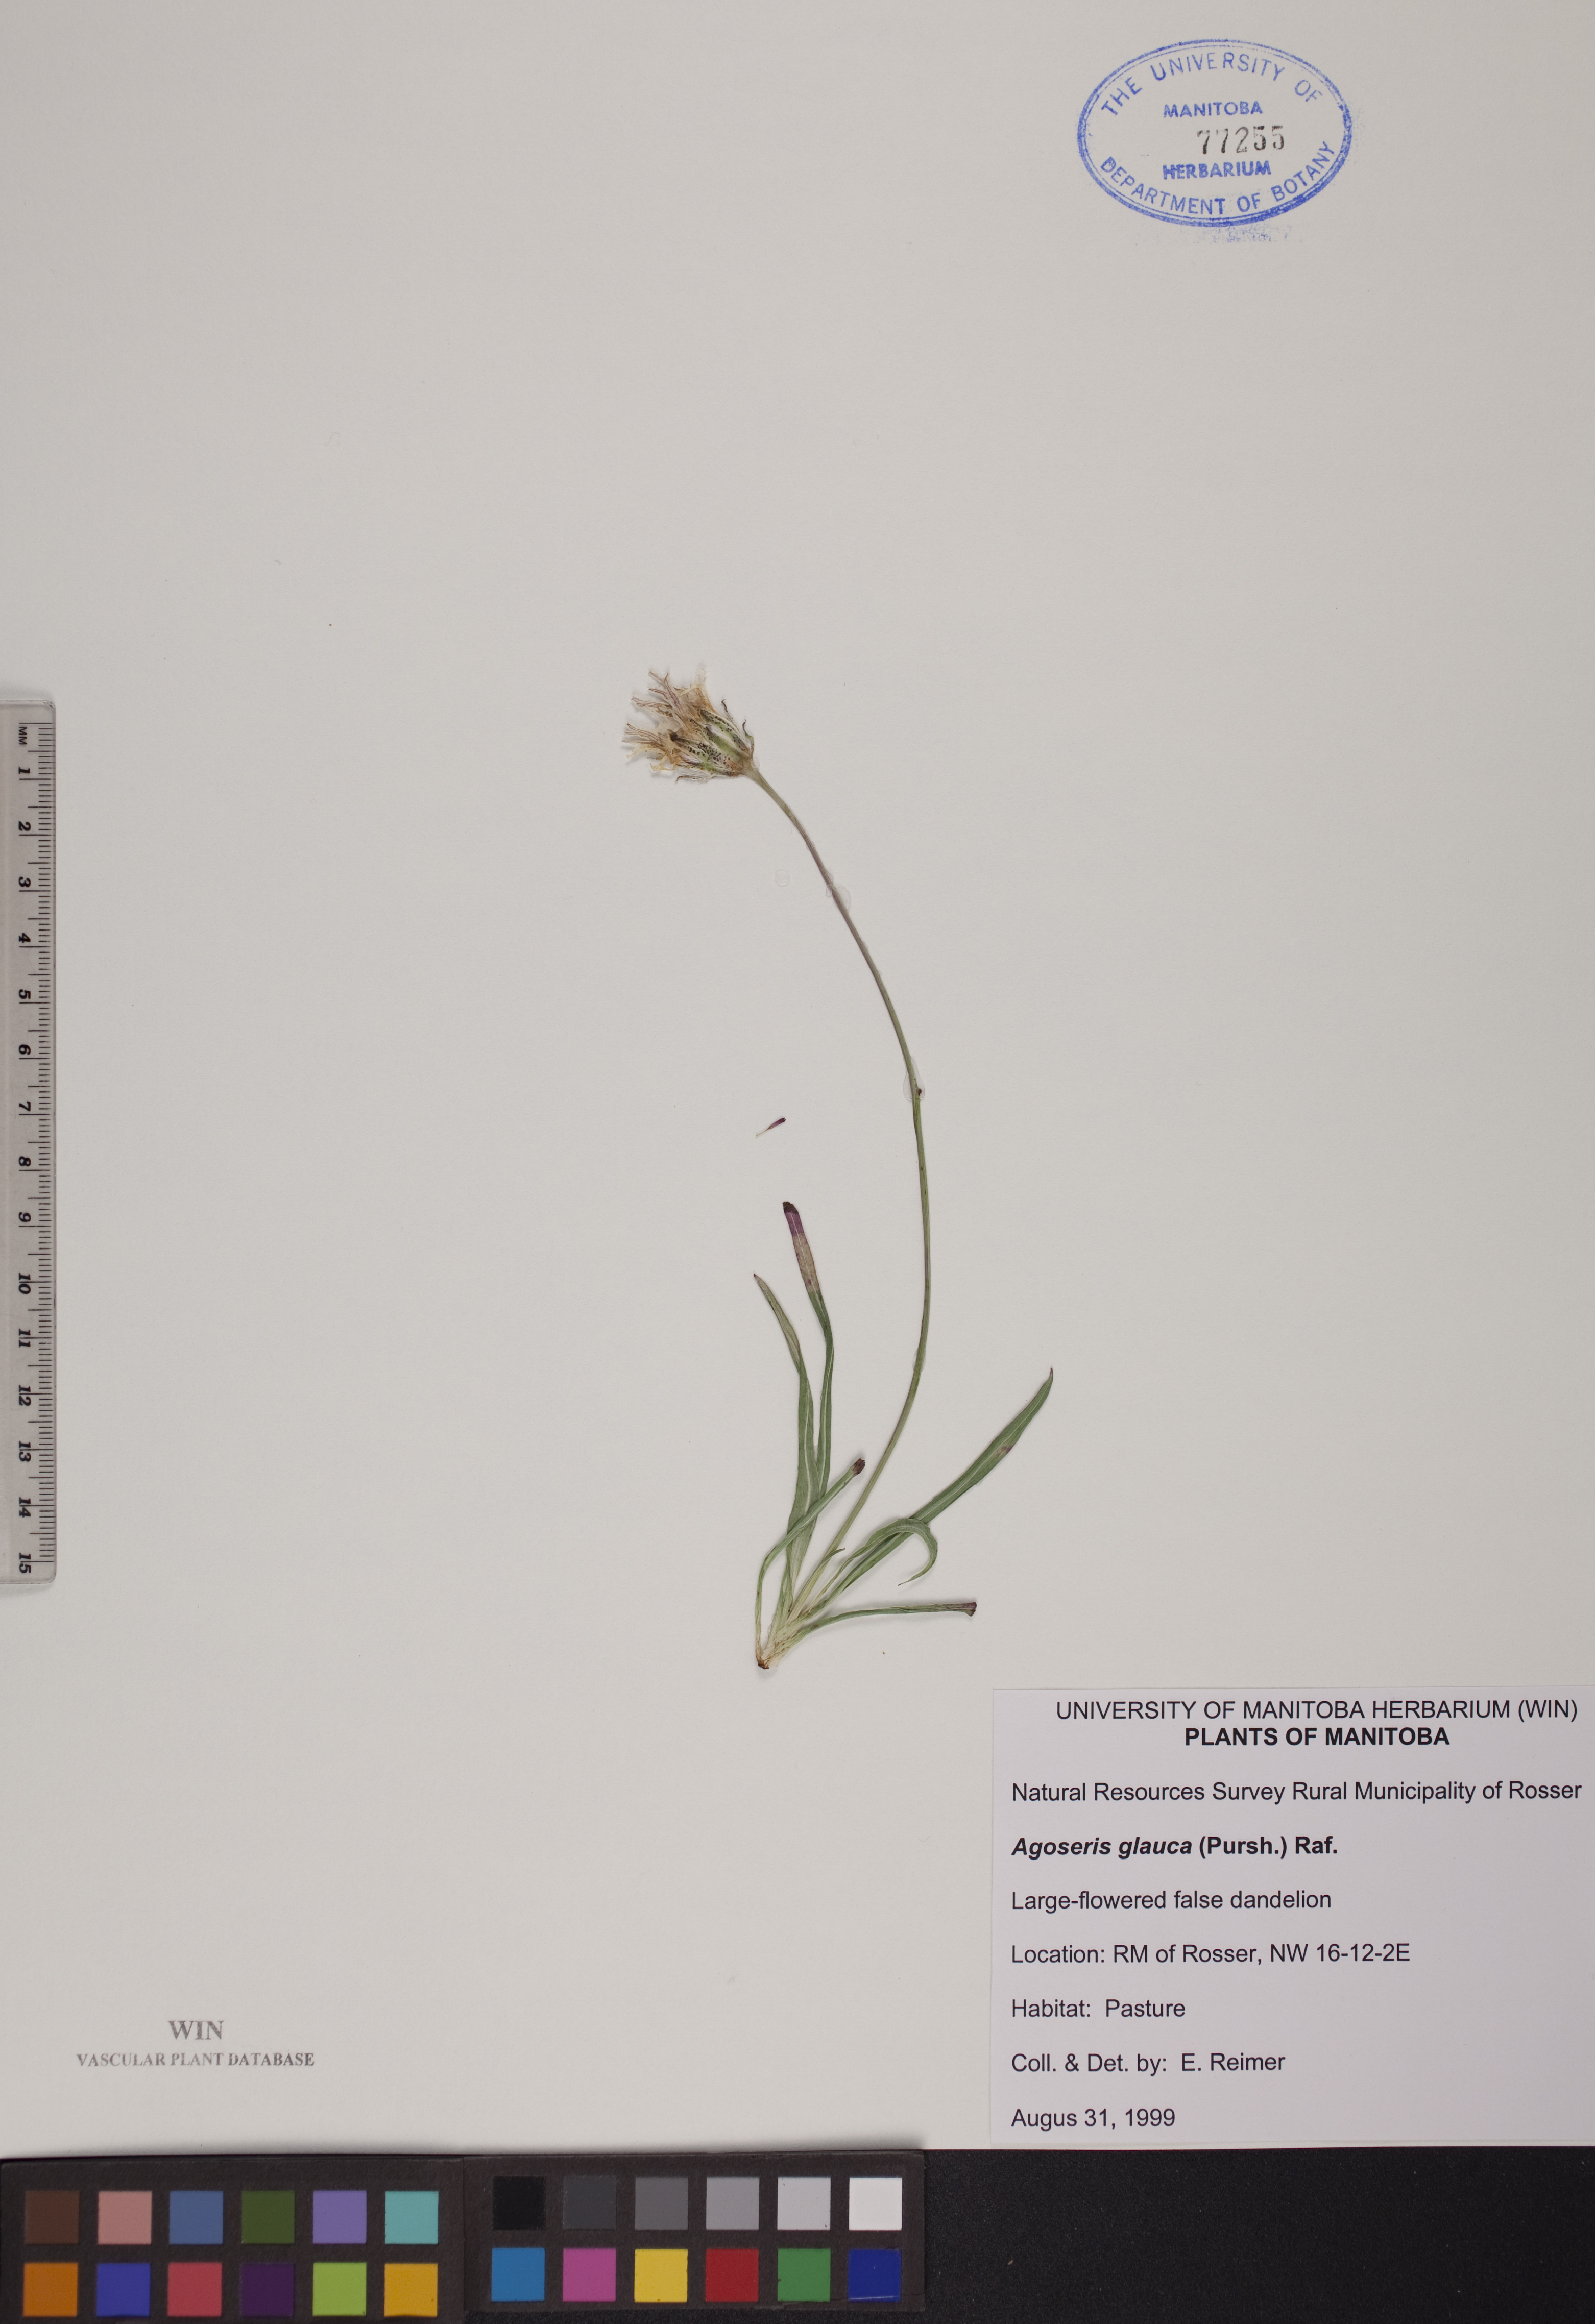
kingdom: Plantae
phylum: Tracheophyta
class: Magnoliopsida
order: Asterales
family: Asteraceae
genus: Agoseris
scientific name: Agoseris glauca
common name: Prairie agoseris
